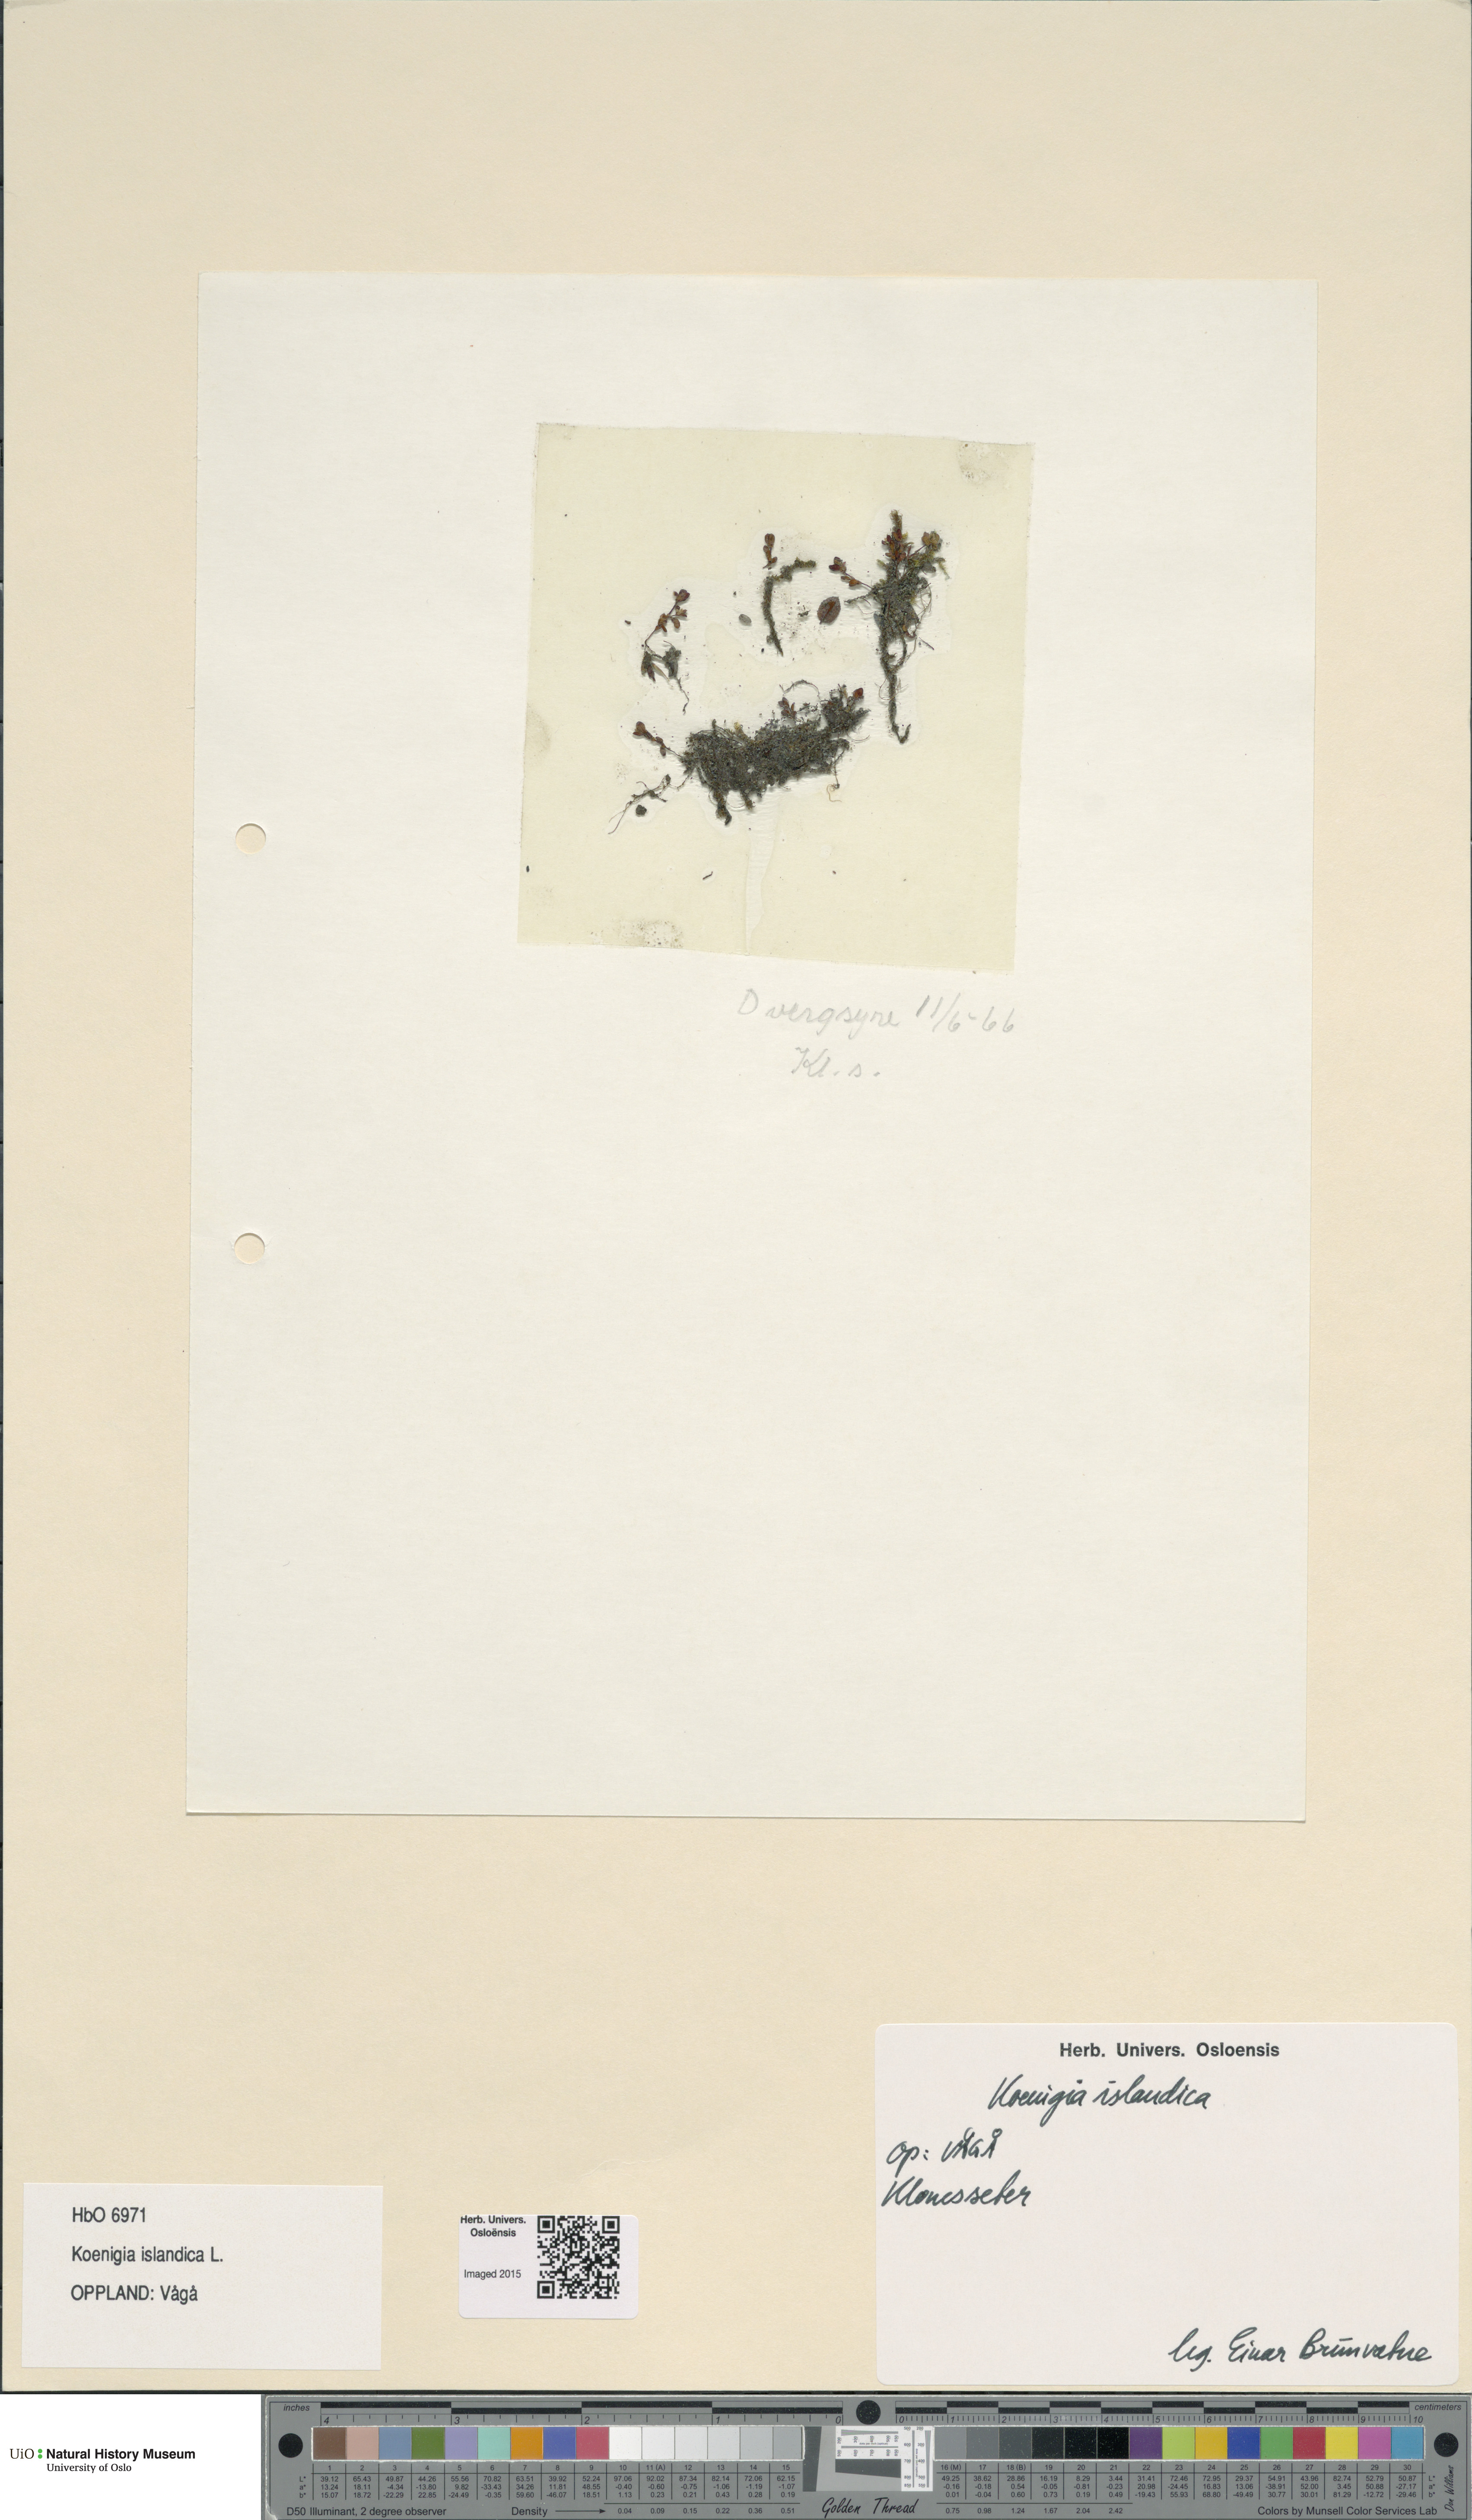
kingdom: Plantae
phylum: Tracheophyta
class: Magnoliopsida
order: Caryophyllales
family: Polygonaceae
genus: Koenigia
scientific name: Koenigia islandica
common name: Iceland-purslane
